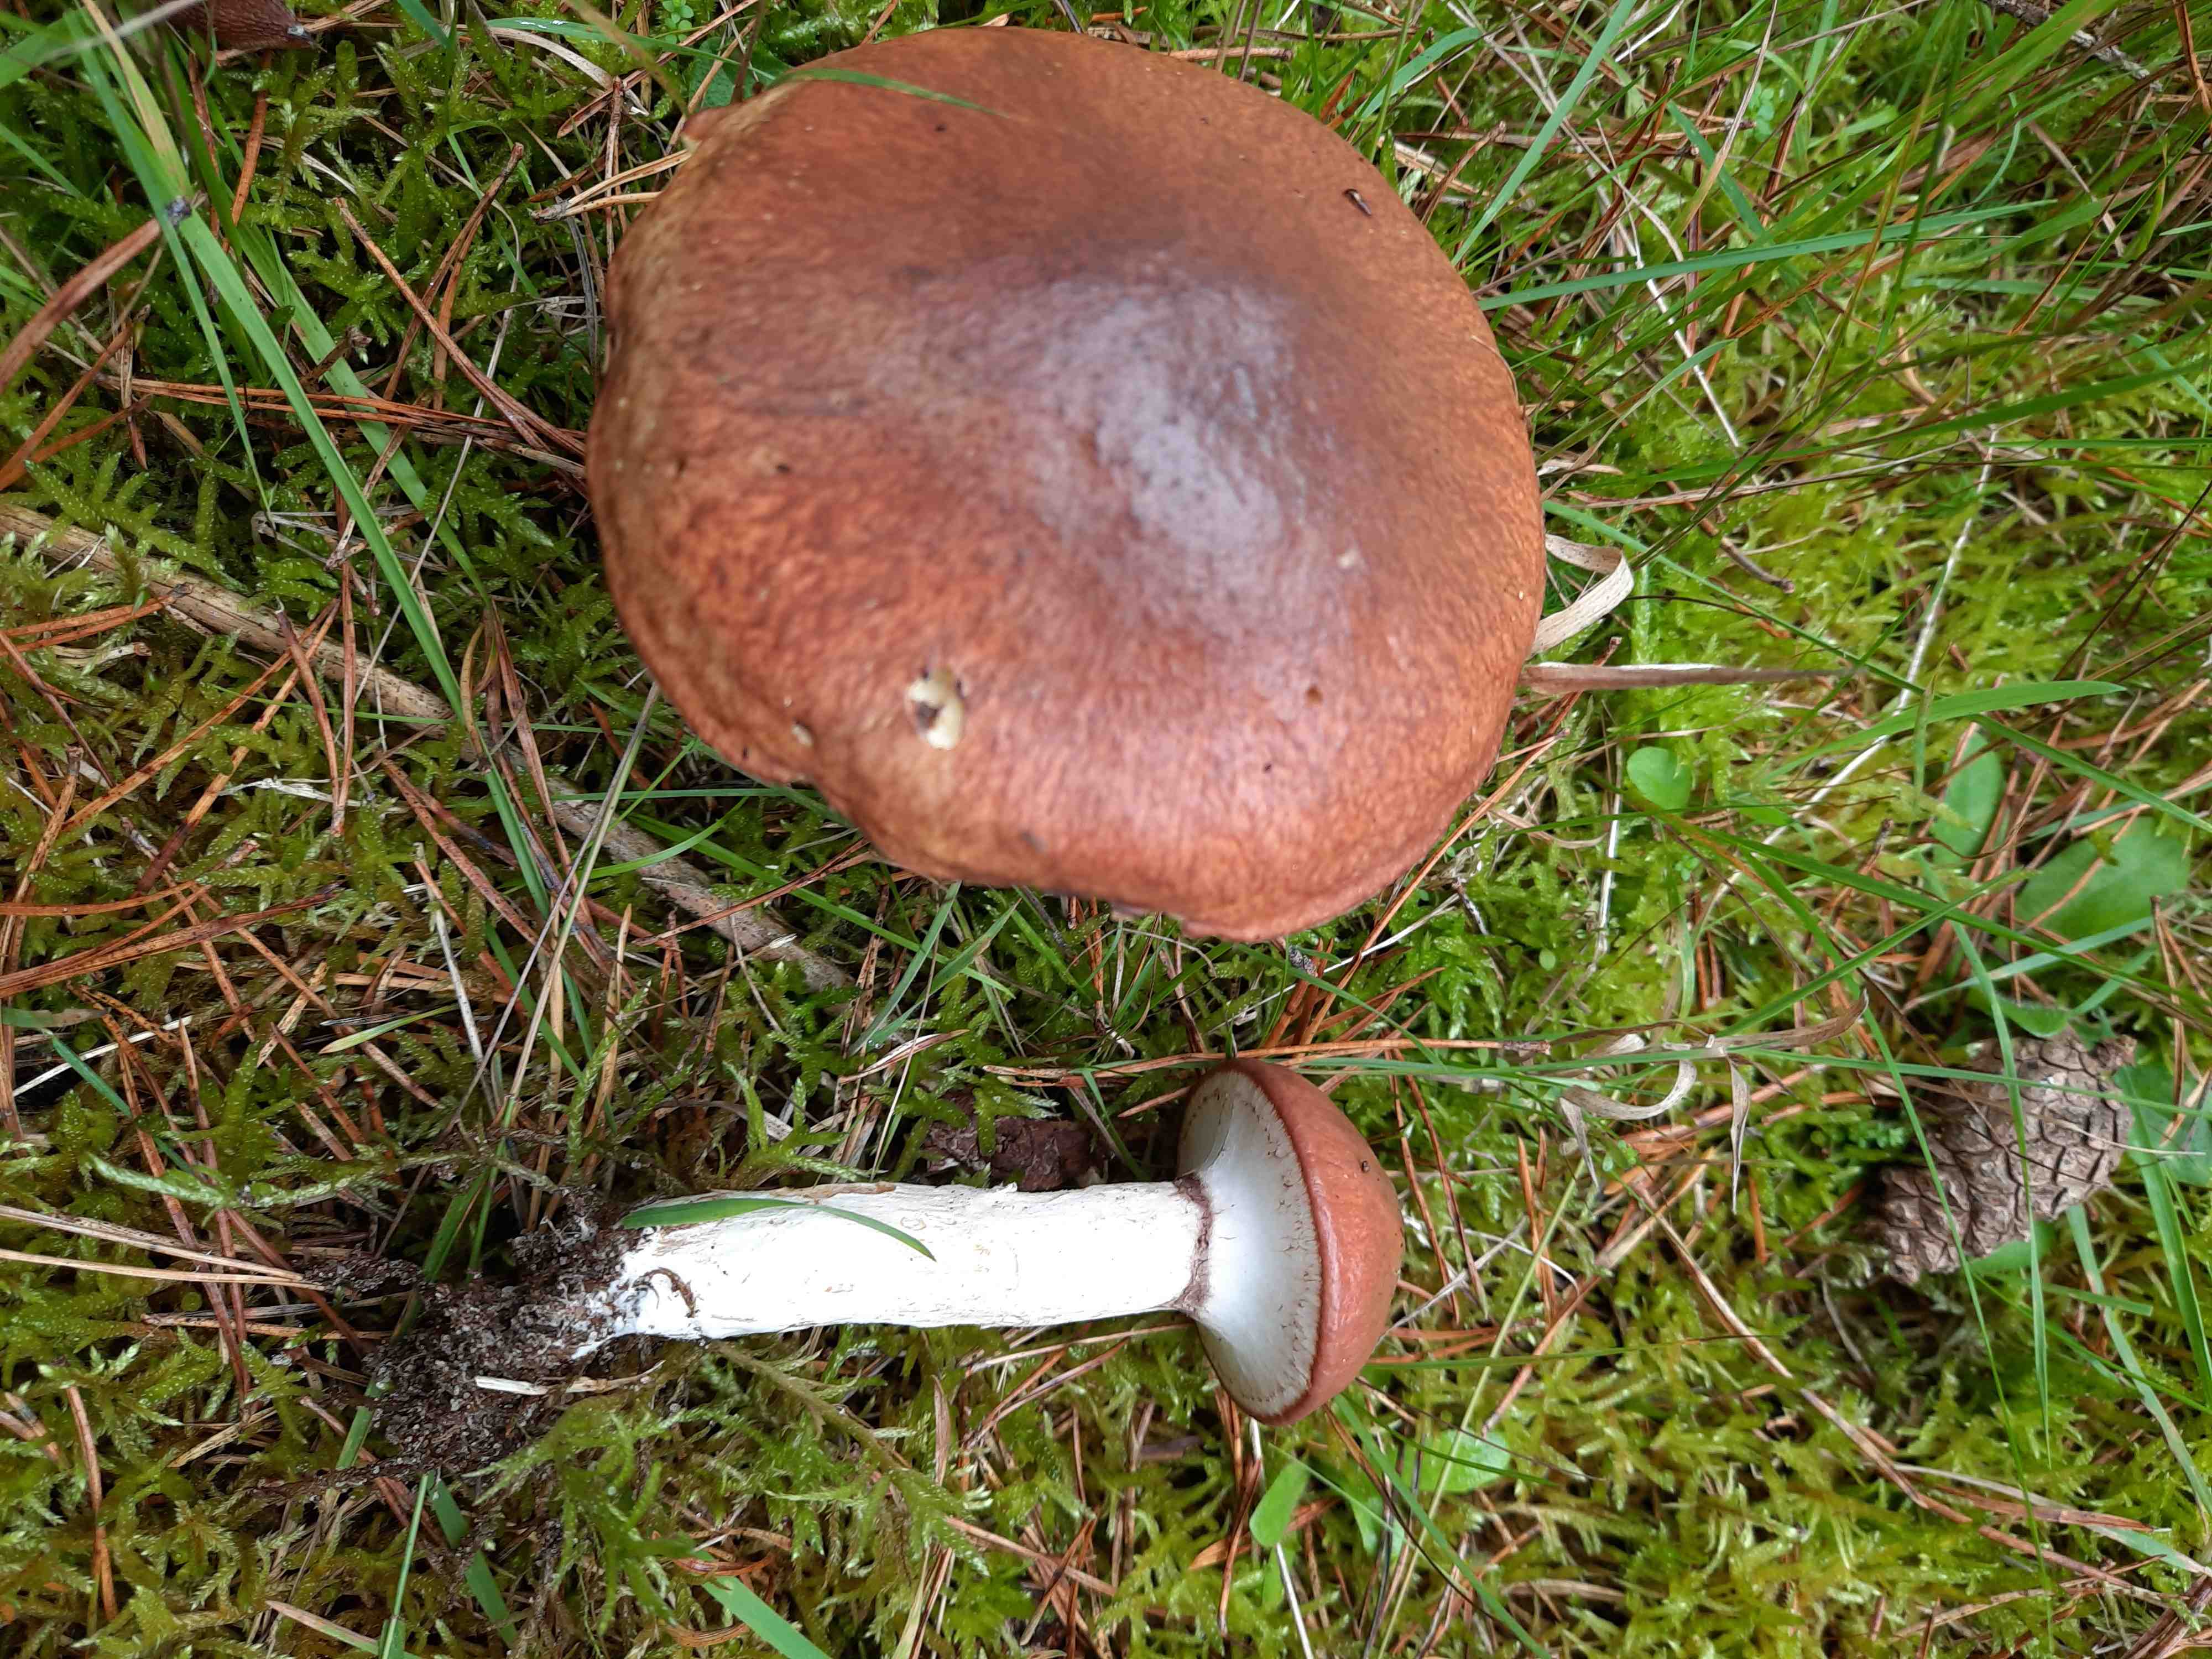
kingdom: Fungi
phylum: Basidiomycota
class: Agaricomycetes
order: Boletales
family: Suillaceae
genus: Suillus
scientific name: Suillus luteus
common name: brungul slimrørhat
